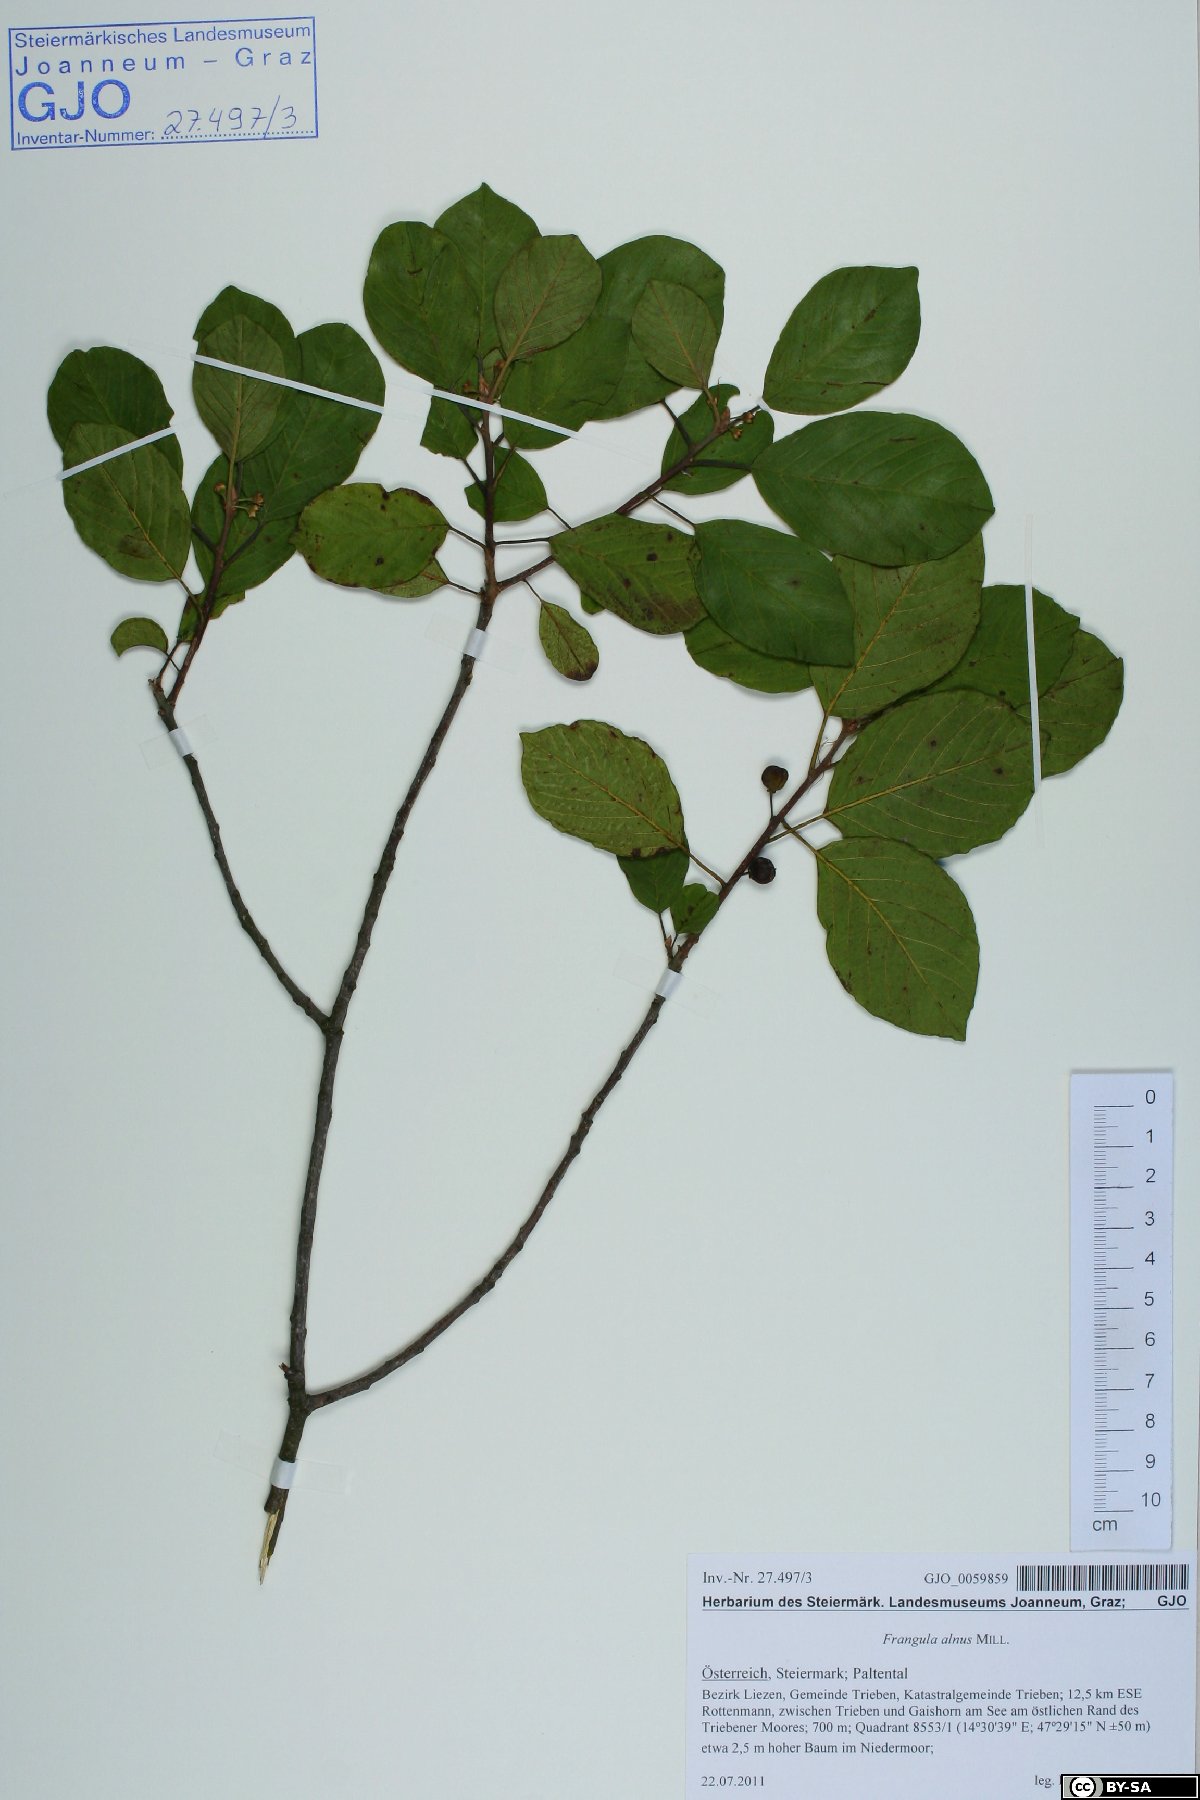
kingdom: Plantae
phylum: Tracheophyta
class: Magnoliopsida
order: Rosales
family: Rhamnaceae
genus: Frangula
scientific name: Frangula alnus
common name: Alder buckthorn
